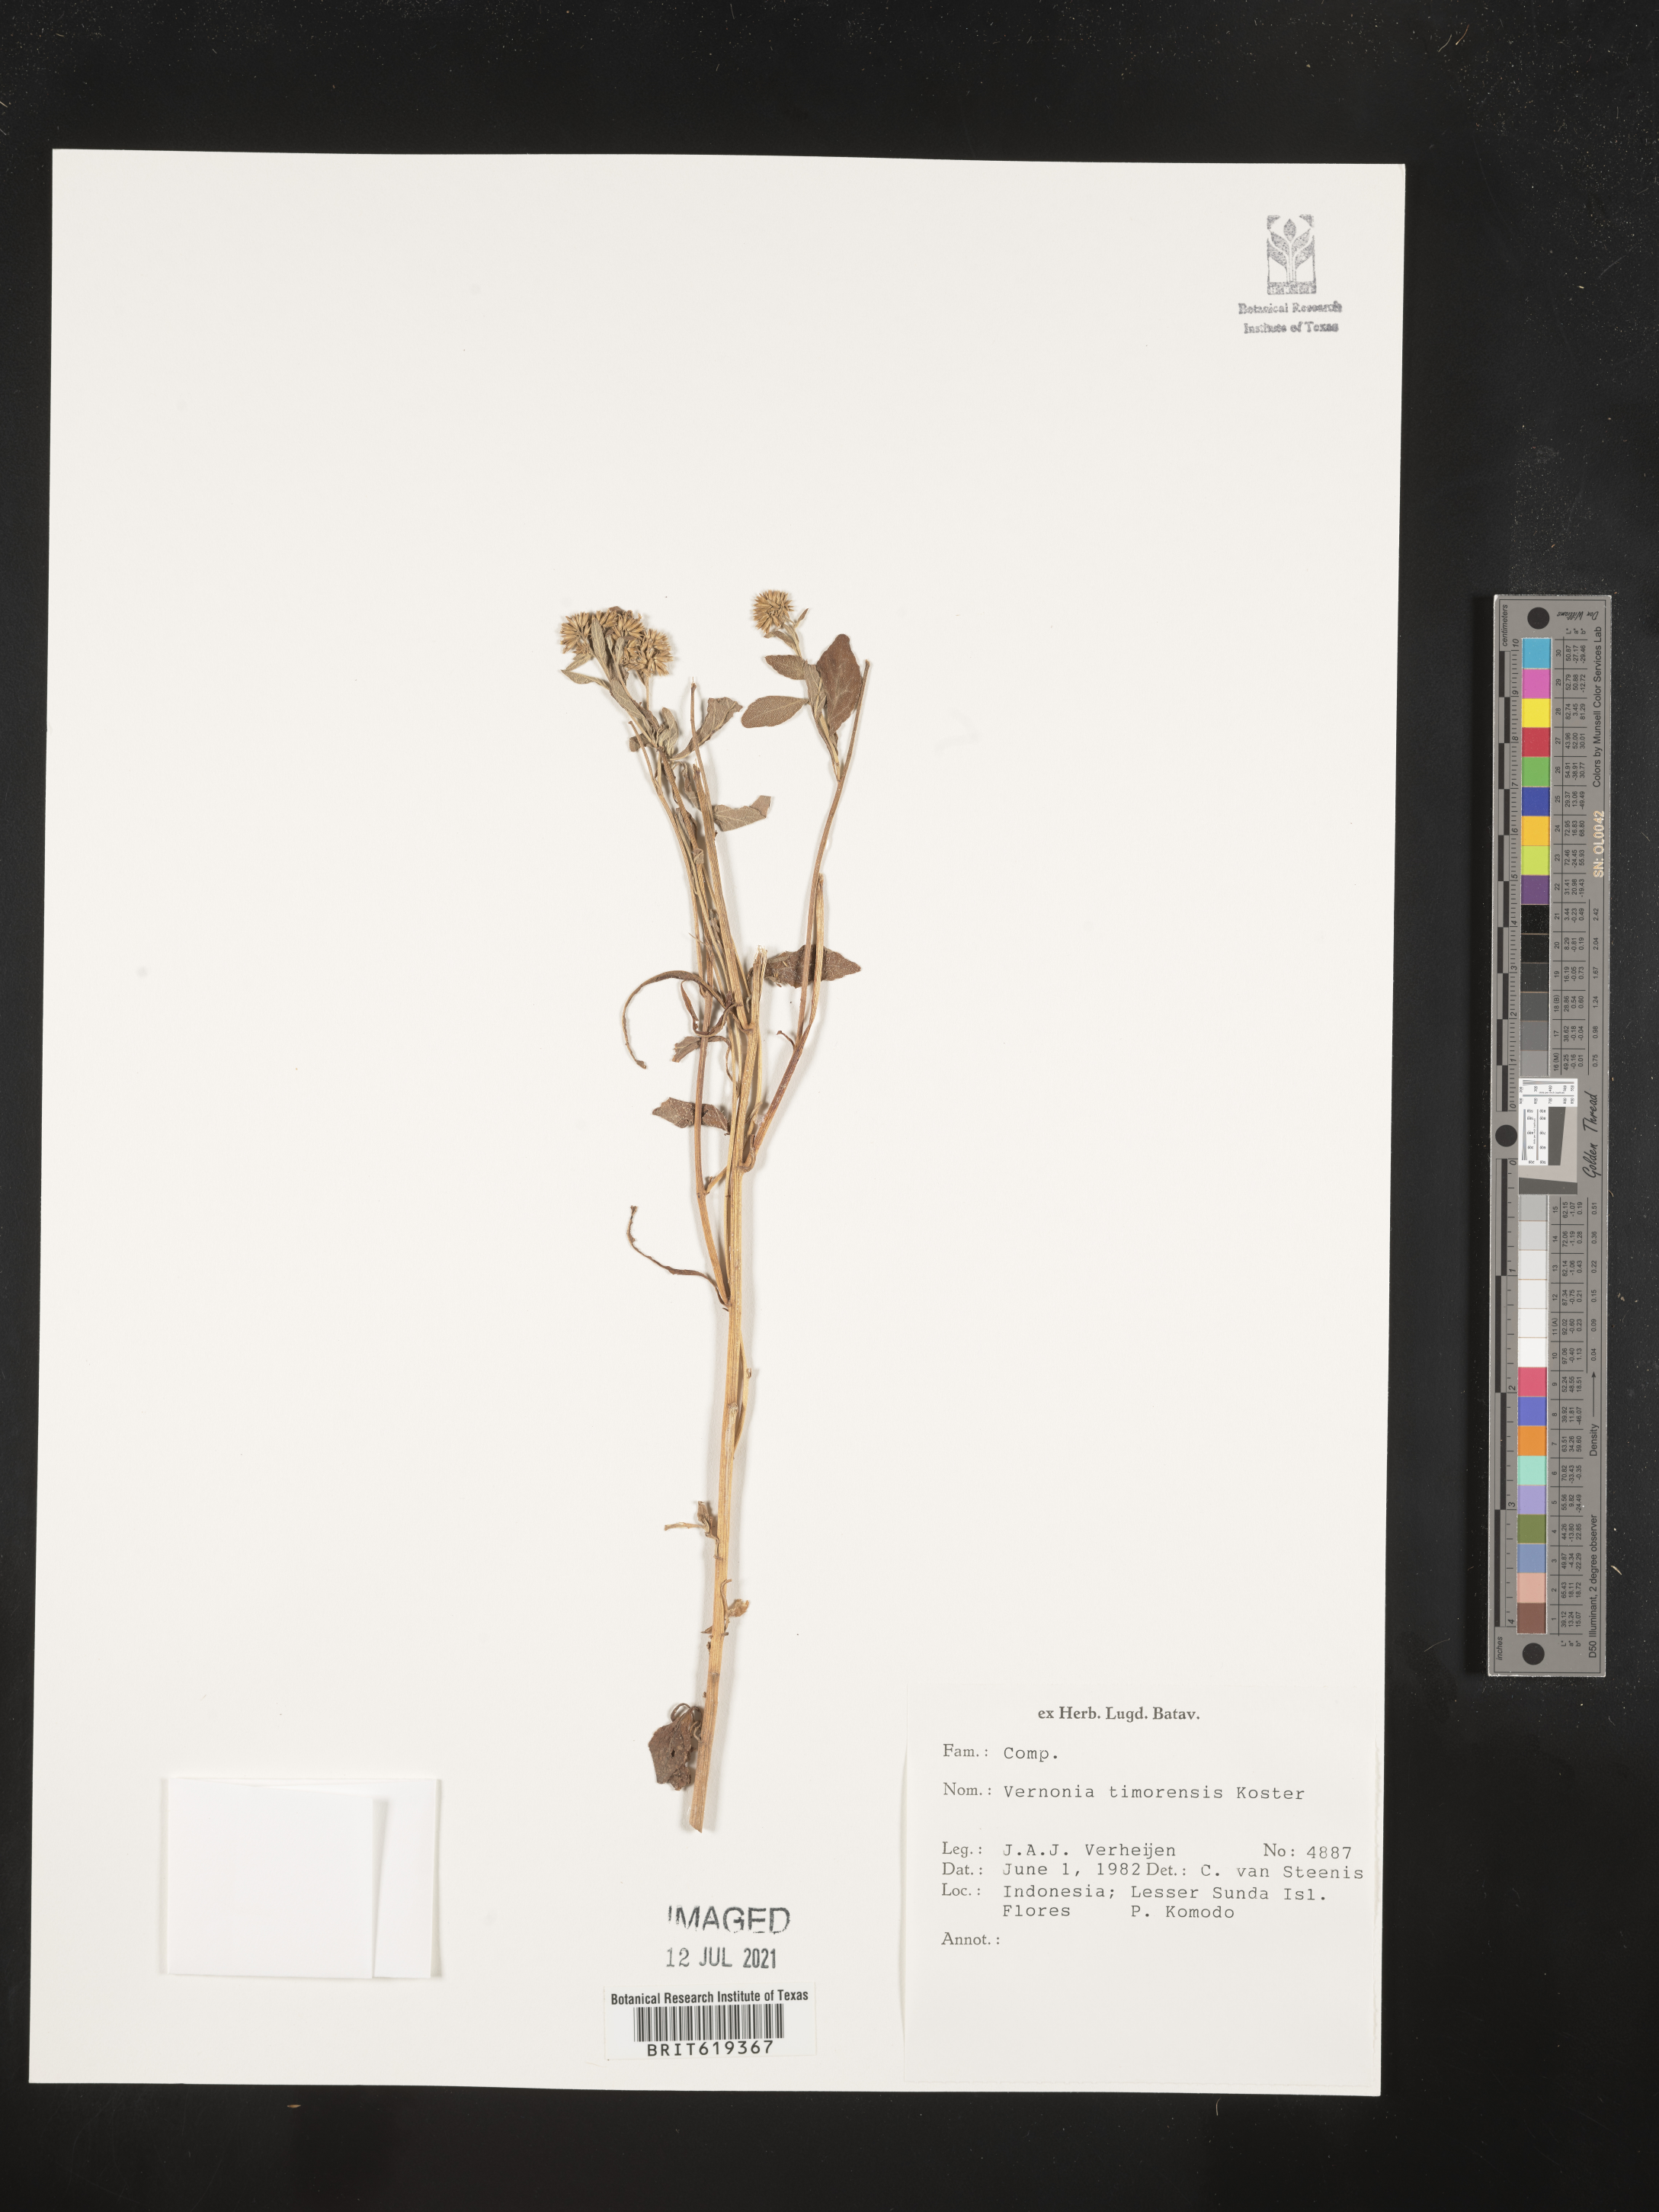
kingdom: Plantae
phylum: Tracheophyta
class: Magnoliopsida
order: Asterales
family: Asteraceae
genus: Vernonia
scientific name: Vernonia timorensis
